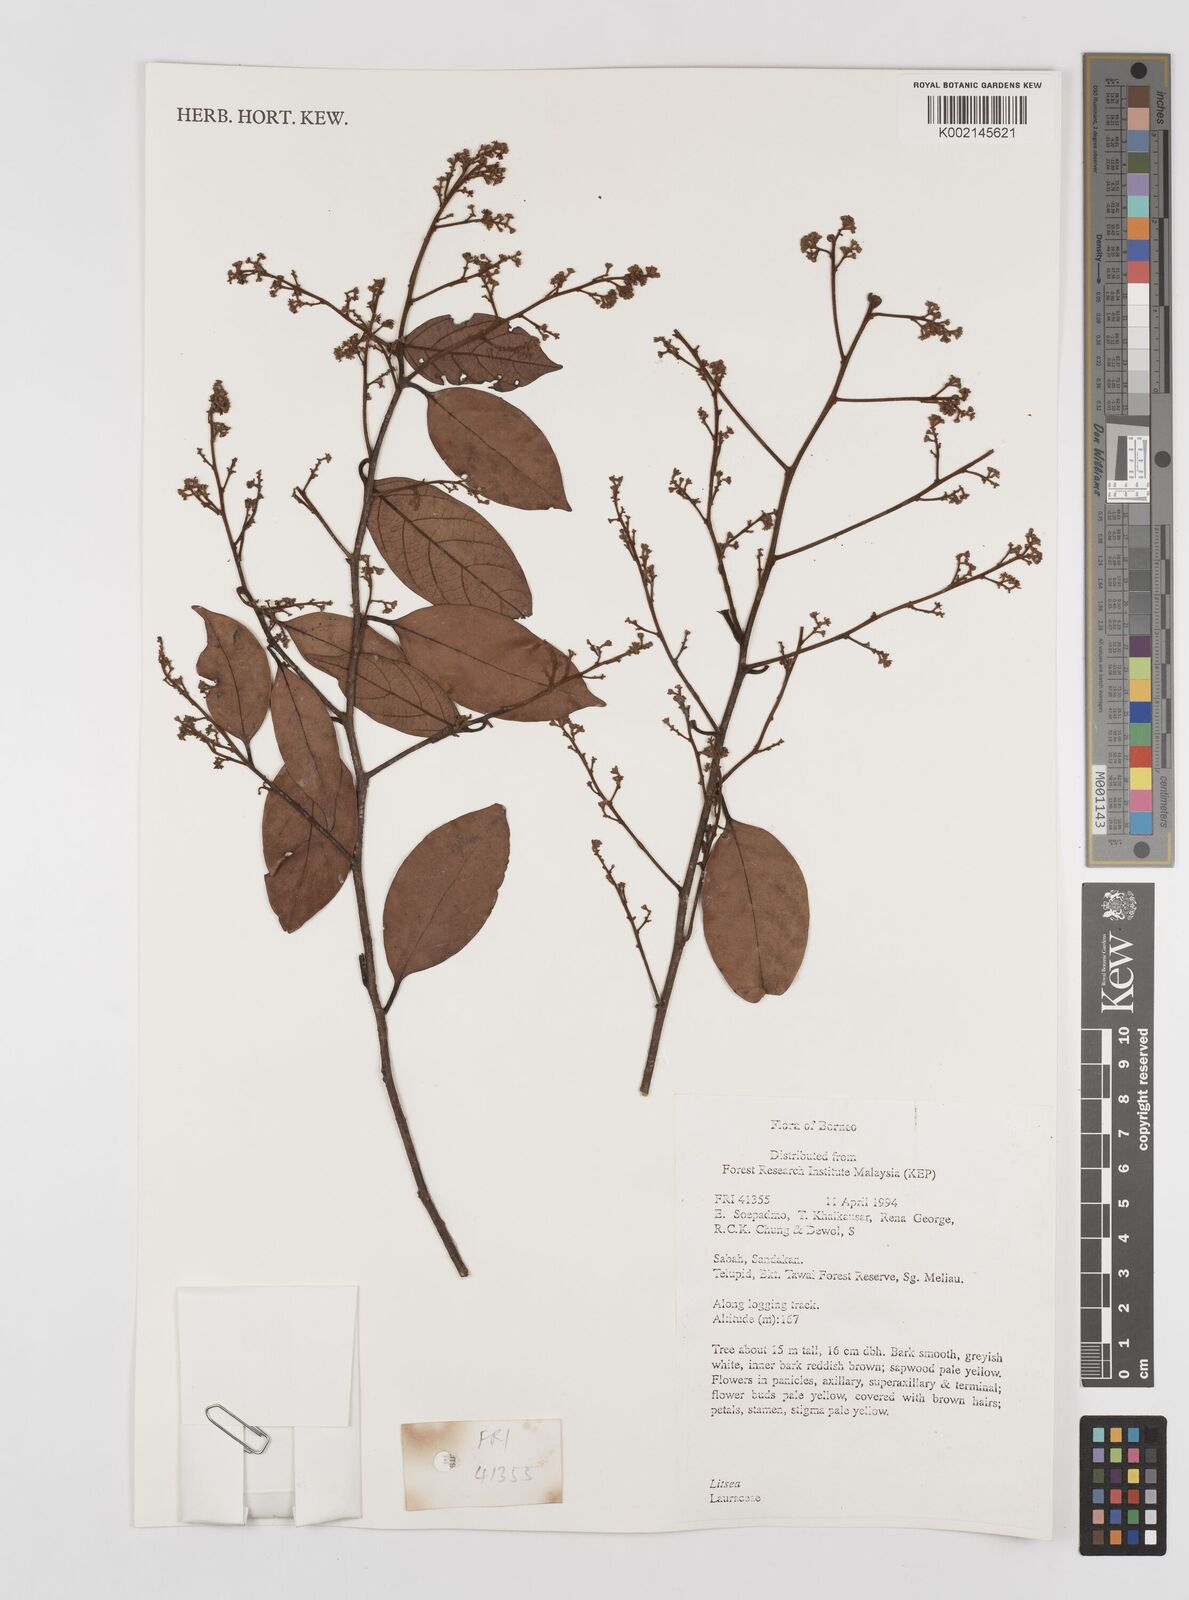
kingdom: Plantae
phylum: Tracheophyta
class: Magnoliopsida
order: Laurales
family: Lauraceae
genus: Litsea
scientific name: Litsea
